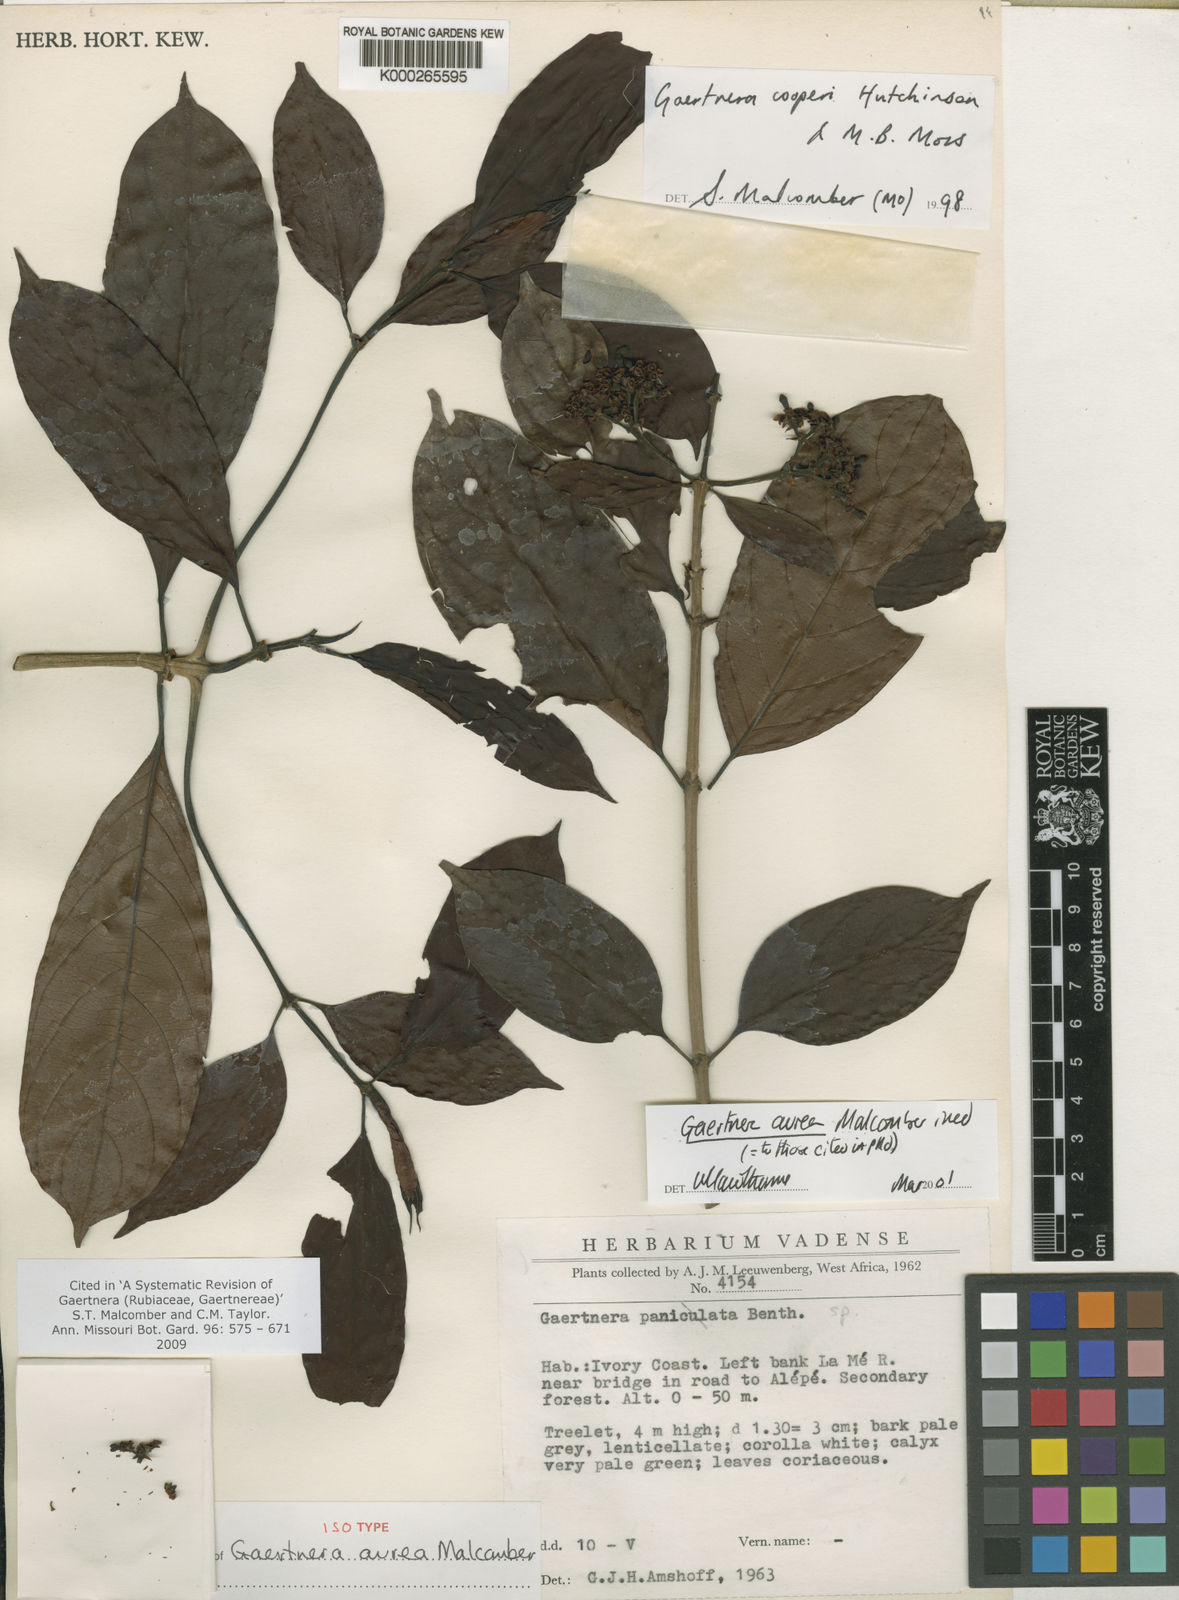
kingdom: Plantae
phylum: Tracheophyta
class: Magnoliopsida
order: Gentianales
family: Rubiaceae
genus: Gaertnera
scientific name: Gaertnera aurea
